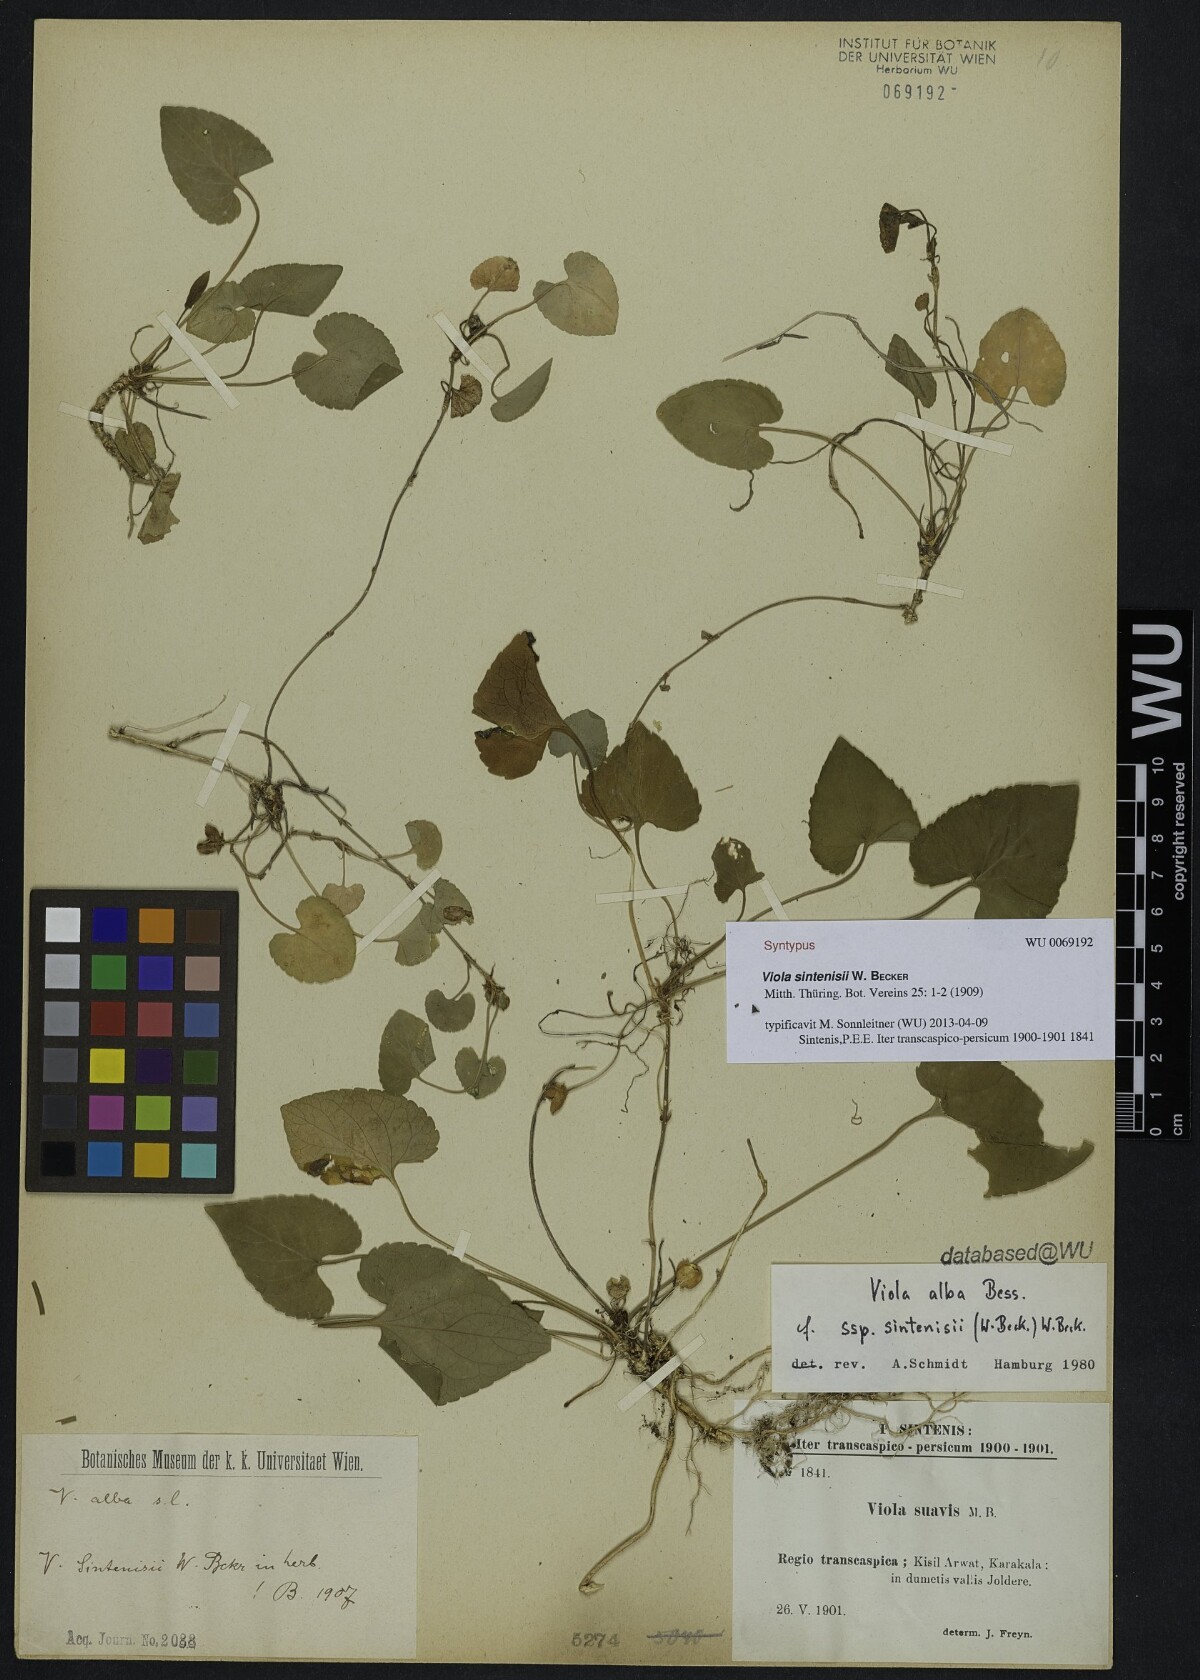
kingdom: Plantae
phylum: Tracheophyta
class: Magnoliopsida
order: Malpighiales
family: Violaceae
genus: Viola
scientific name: Viola sintenisii
